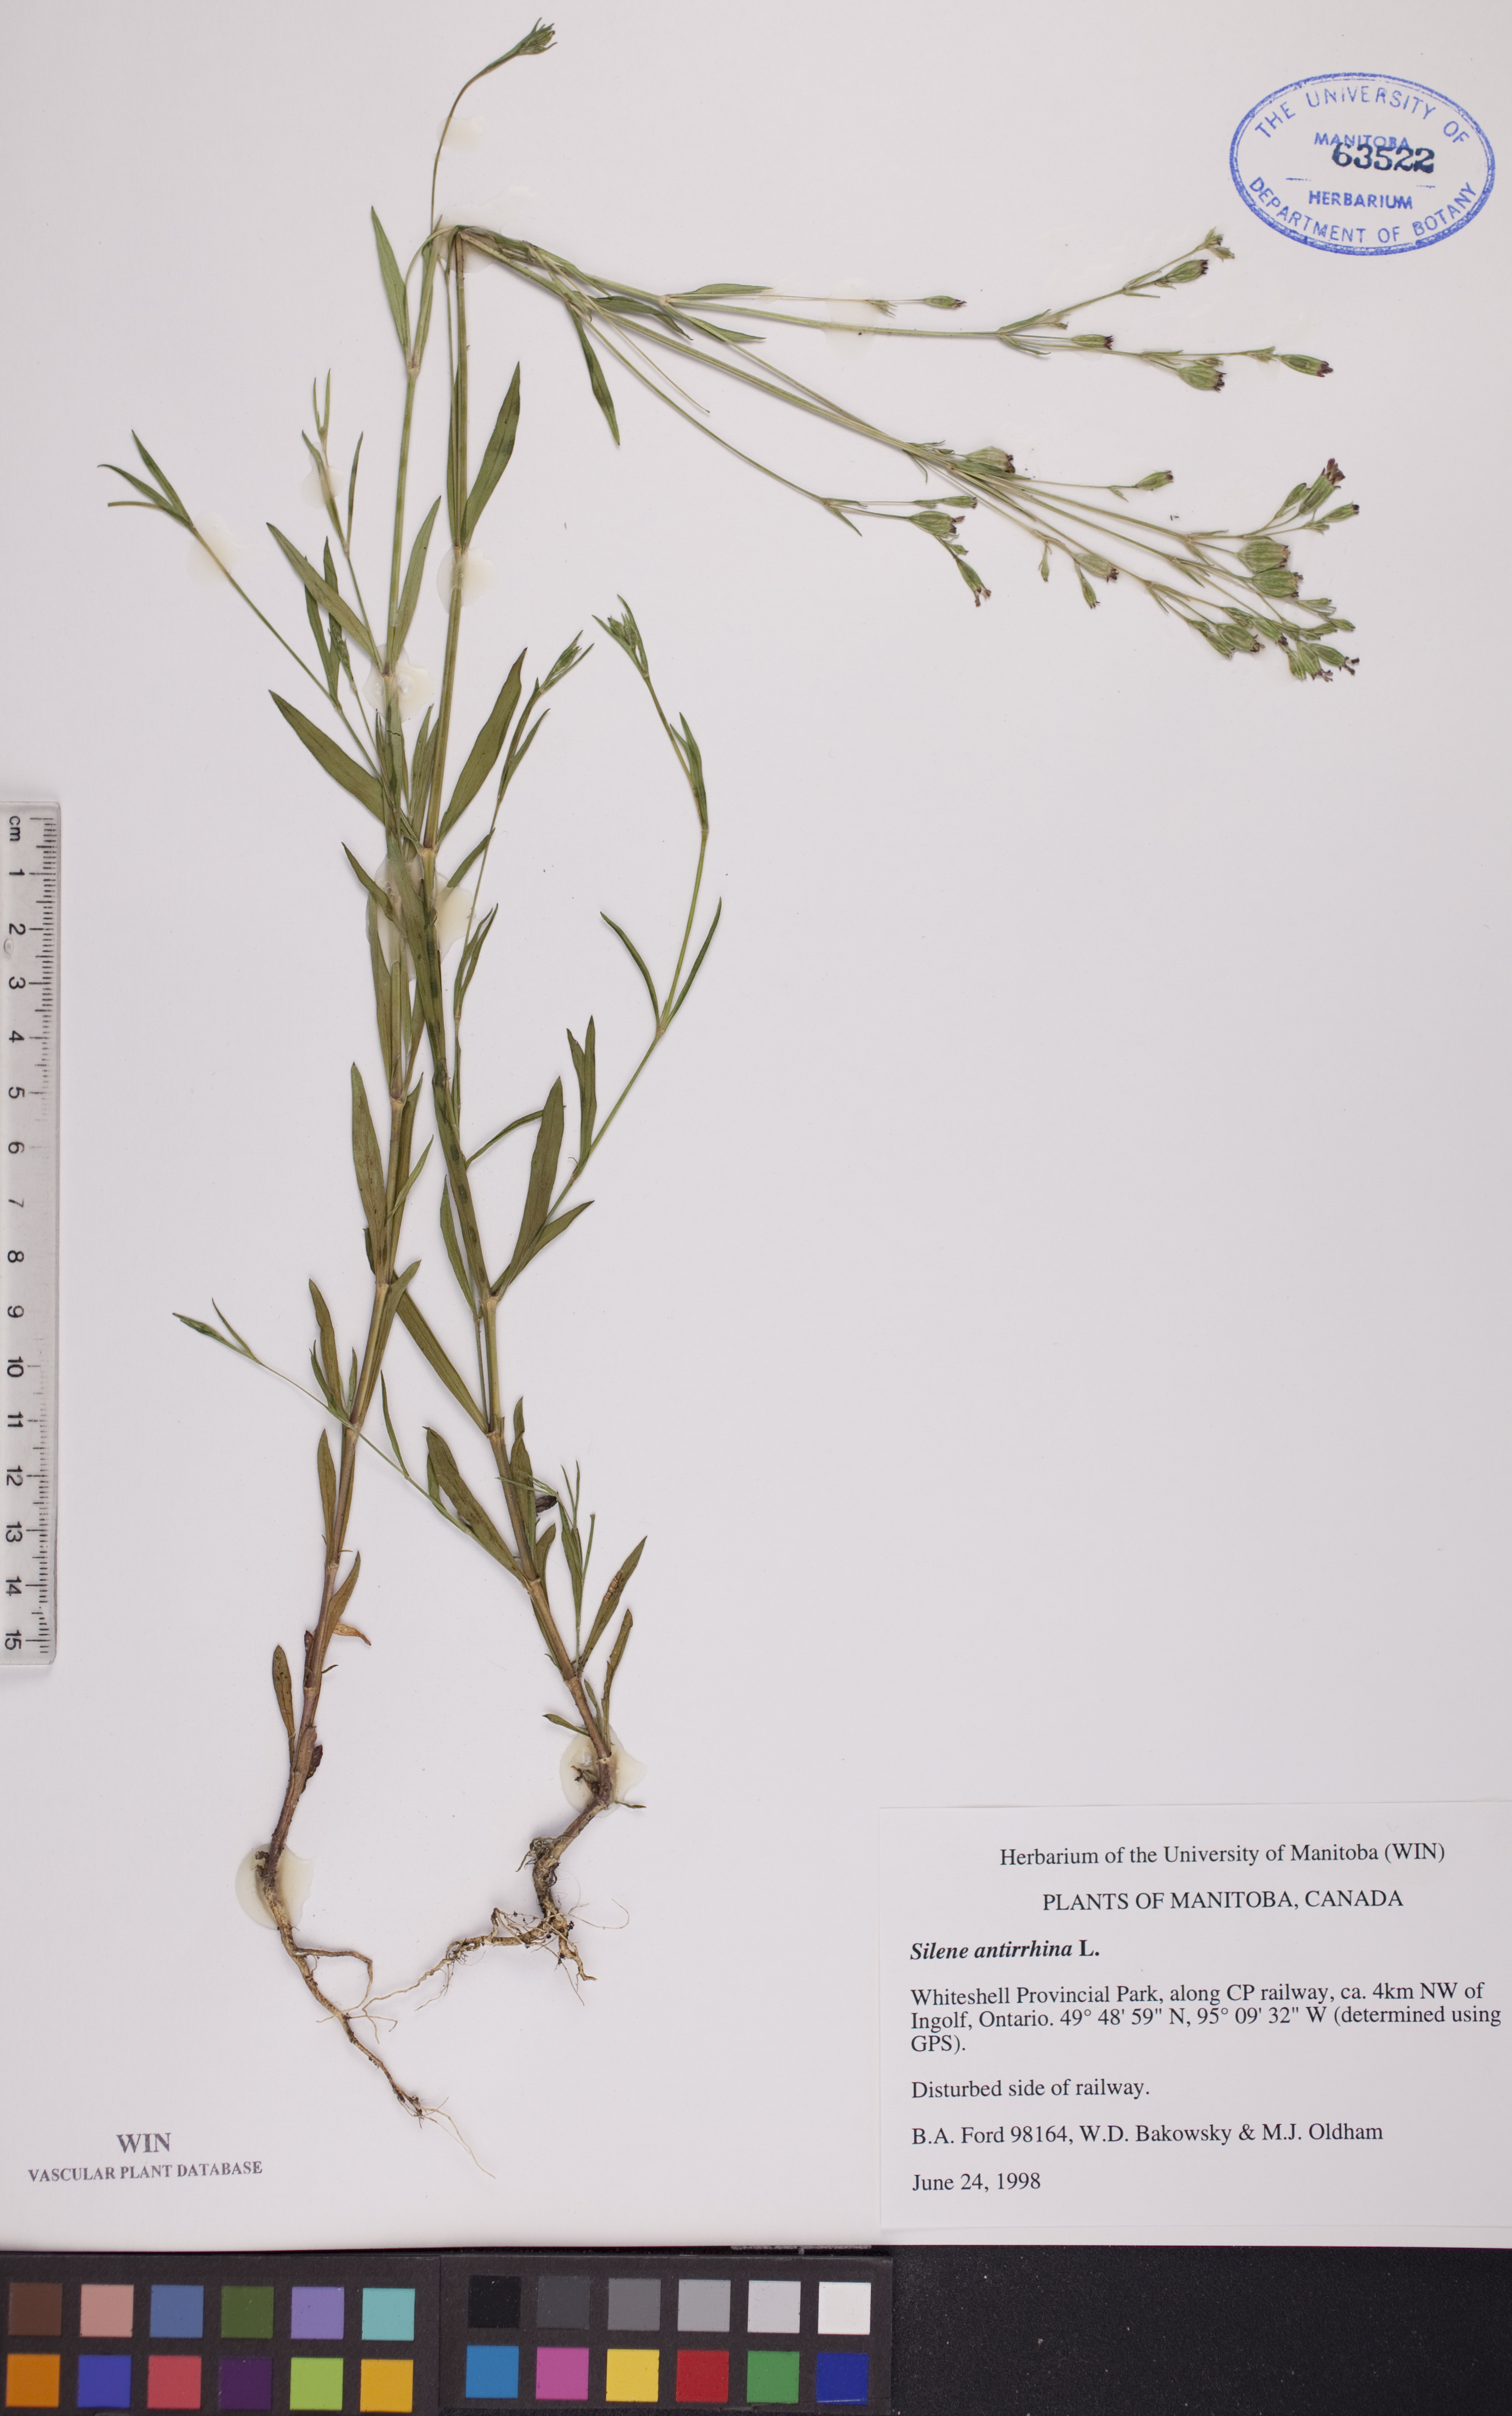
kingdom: Plantae
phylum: Tracheophyta
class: Magnoliopsida
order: Caryophyllales
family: Caryophyllaceae
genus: Silene
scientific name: Silene antirrhina
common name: Sleepy catchfly
